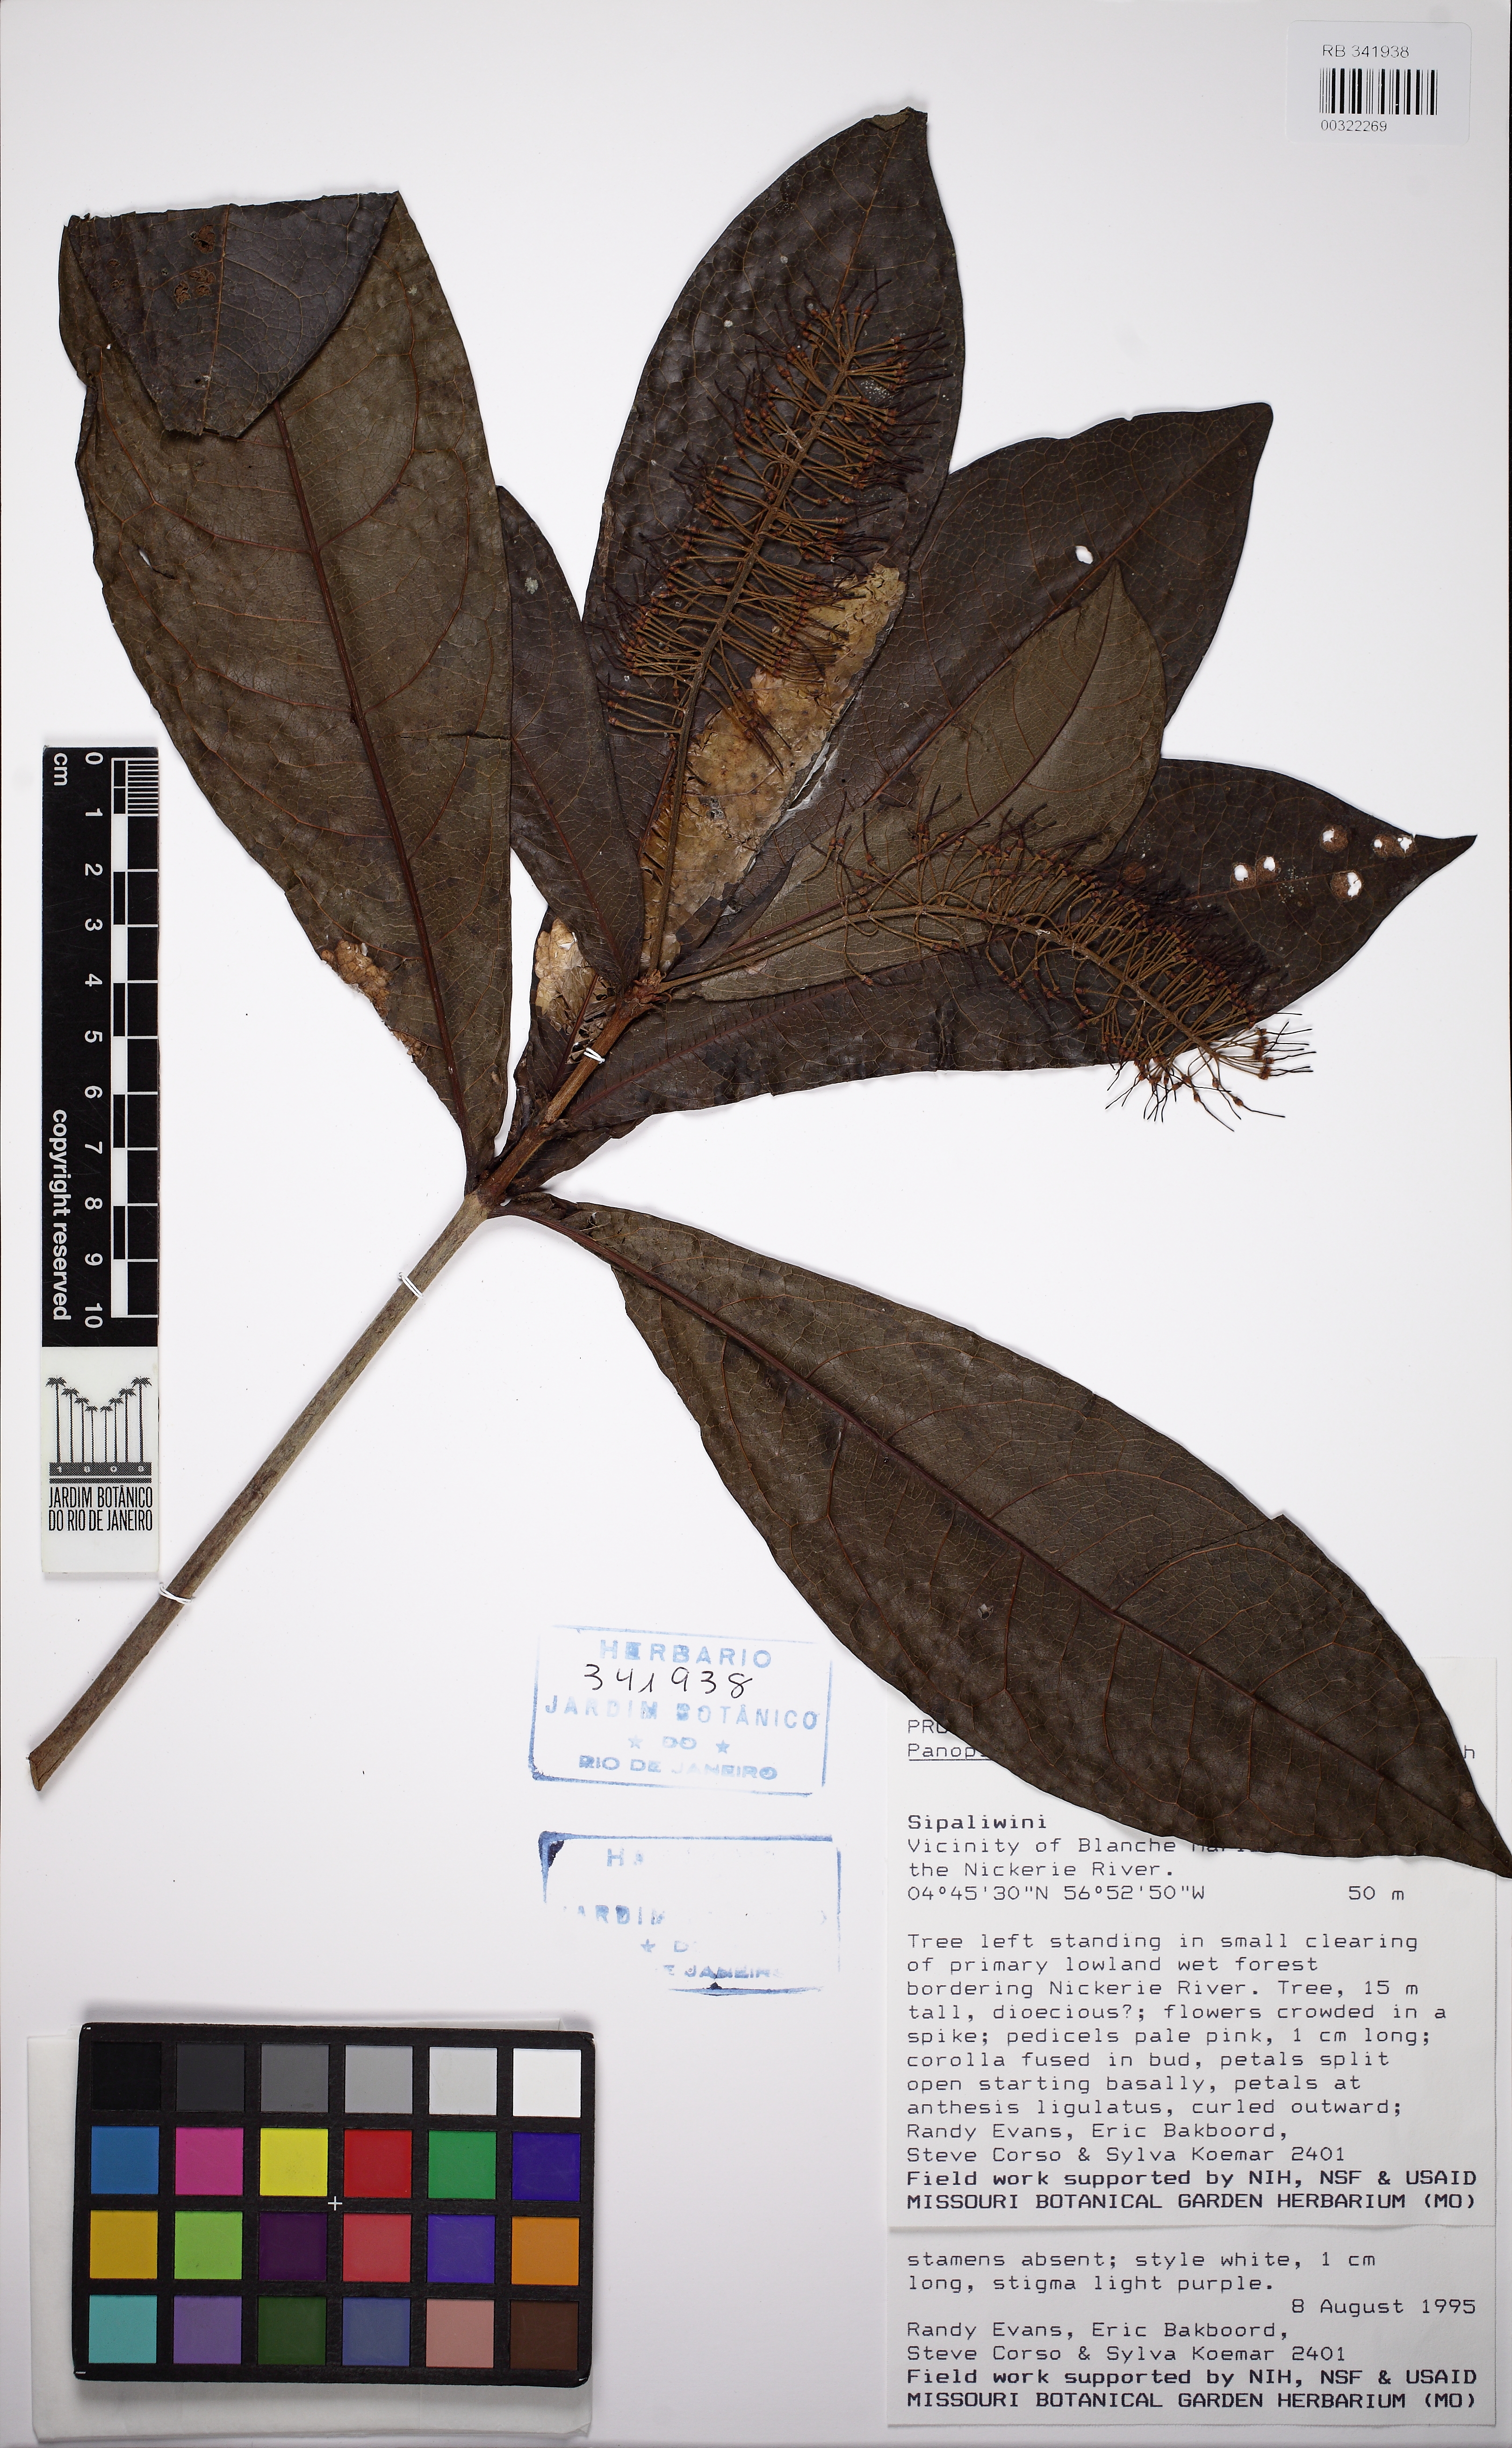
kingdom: Plantae
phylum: Tracheophyta
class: Magnoliopsida
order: Proteales
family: Proteaceae
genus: Panopsis
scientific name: Panopsis sessilifolia
